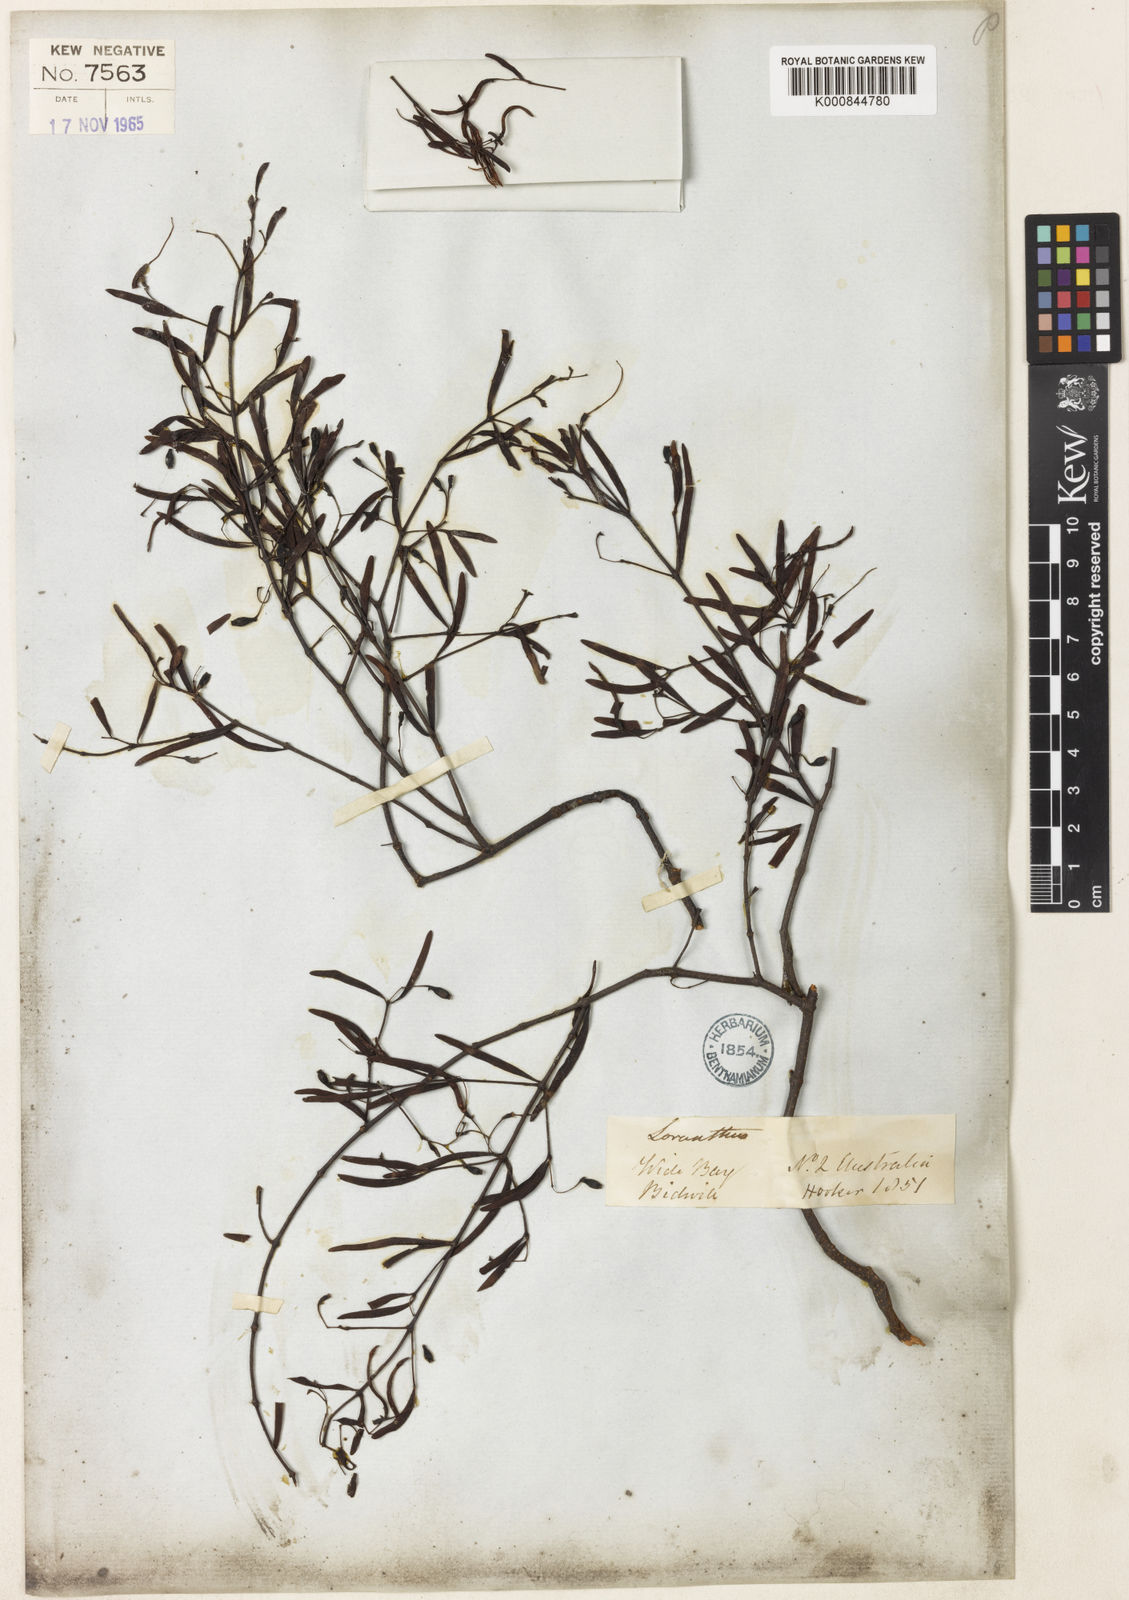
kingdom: Plantae
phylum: Tracheophyta
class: Magnoliopsida
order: Santalales
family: Loranthaceae
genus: Muellerina
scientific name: Muellerina bidwillii
